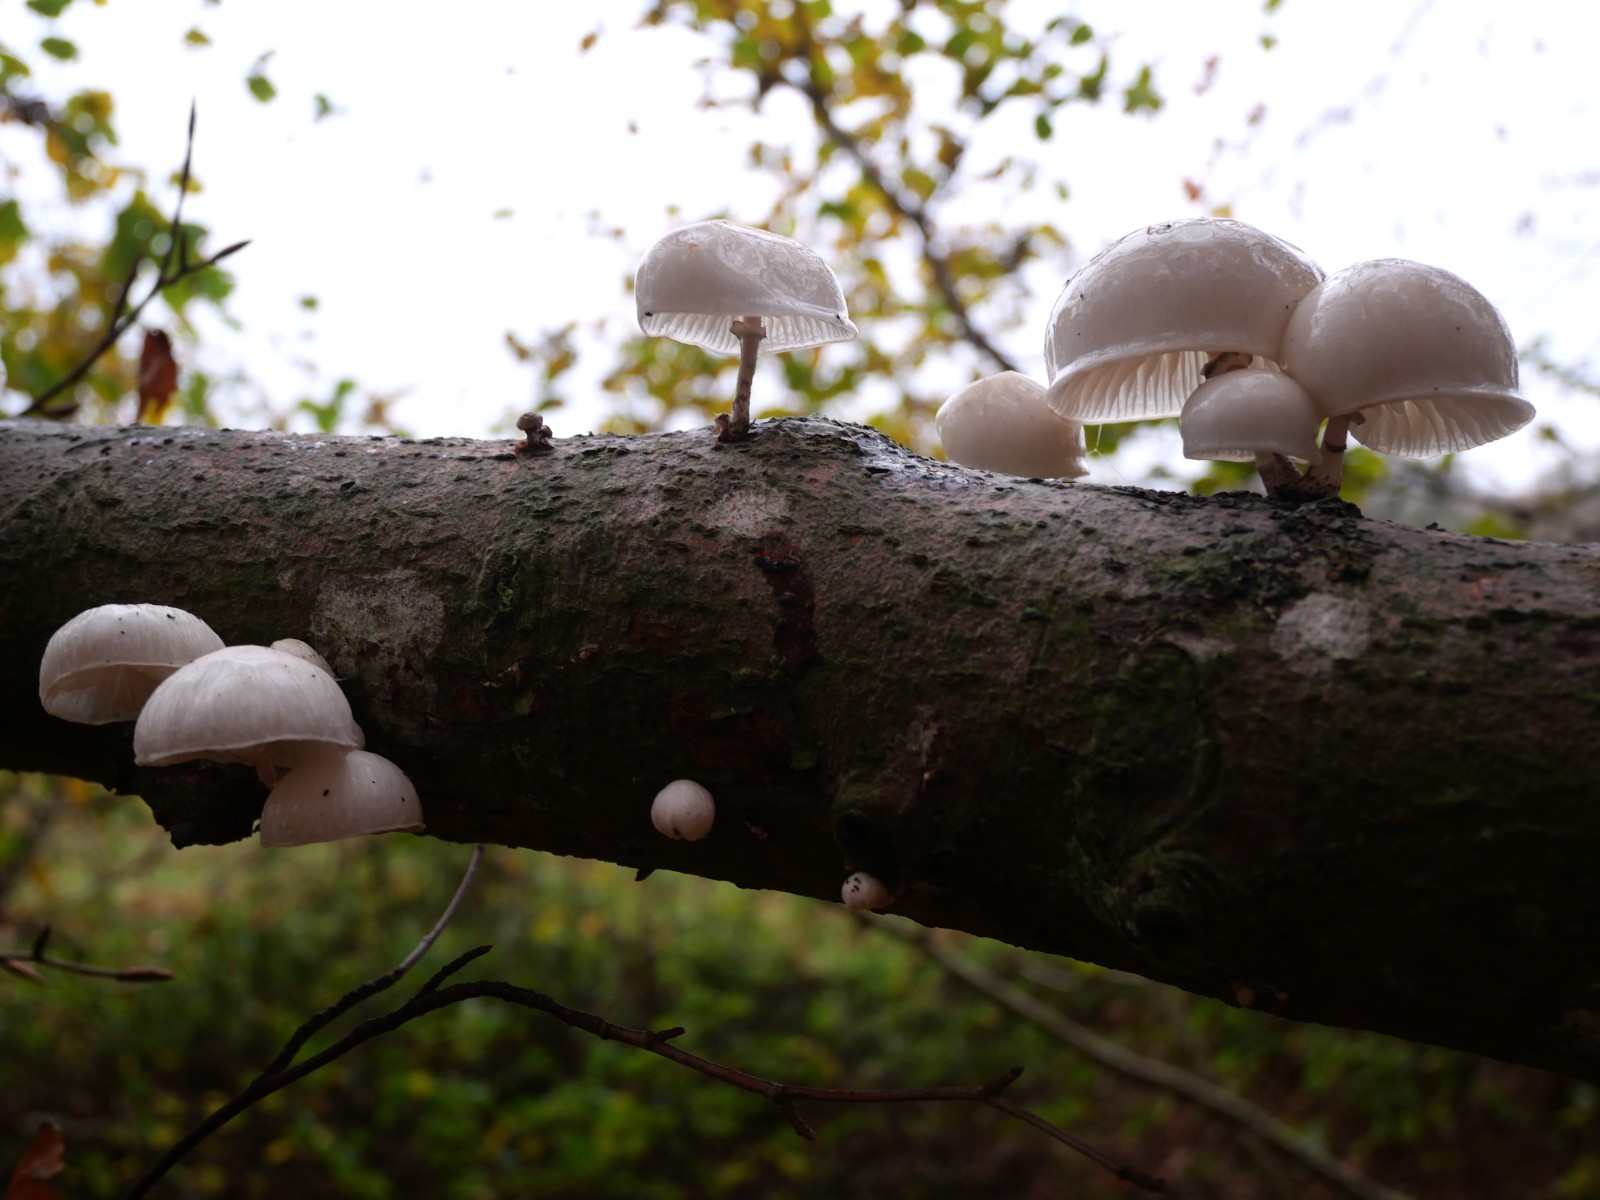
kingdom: Fungi
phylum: Basidiomycota
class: Agaricomycetes
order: Agaricales
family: Physalacriaceae
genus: Mucidula
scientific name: Mucidula mucida
